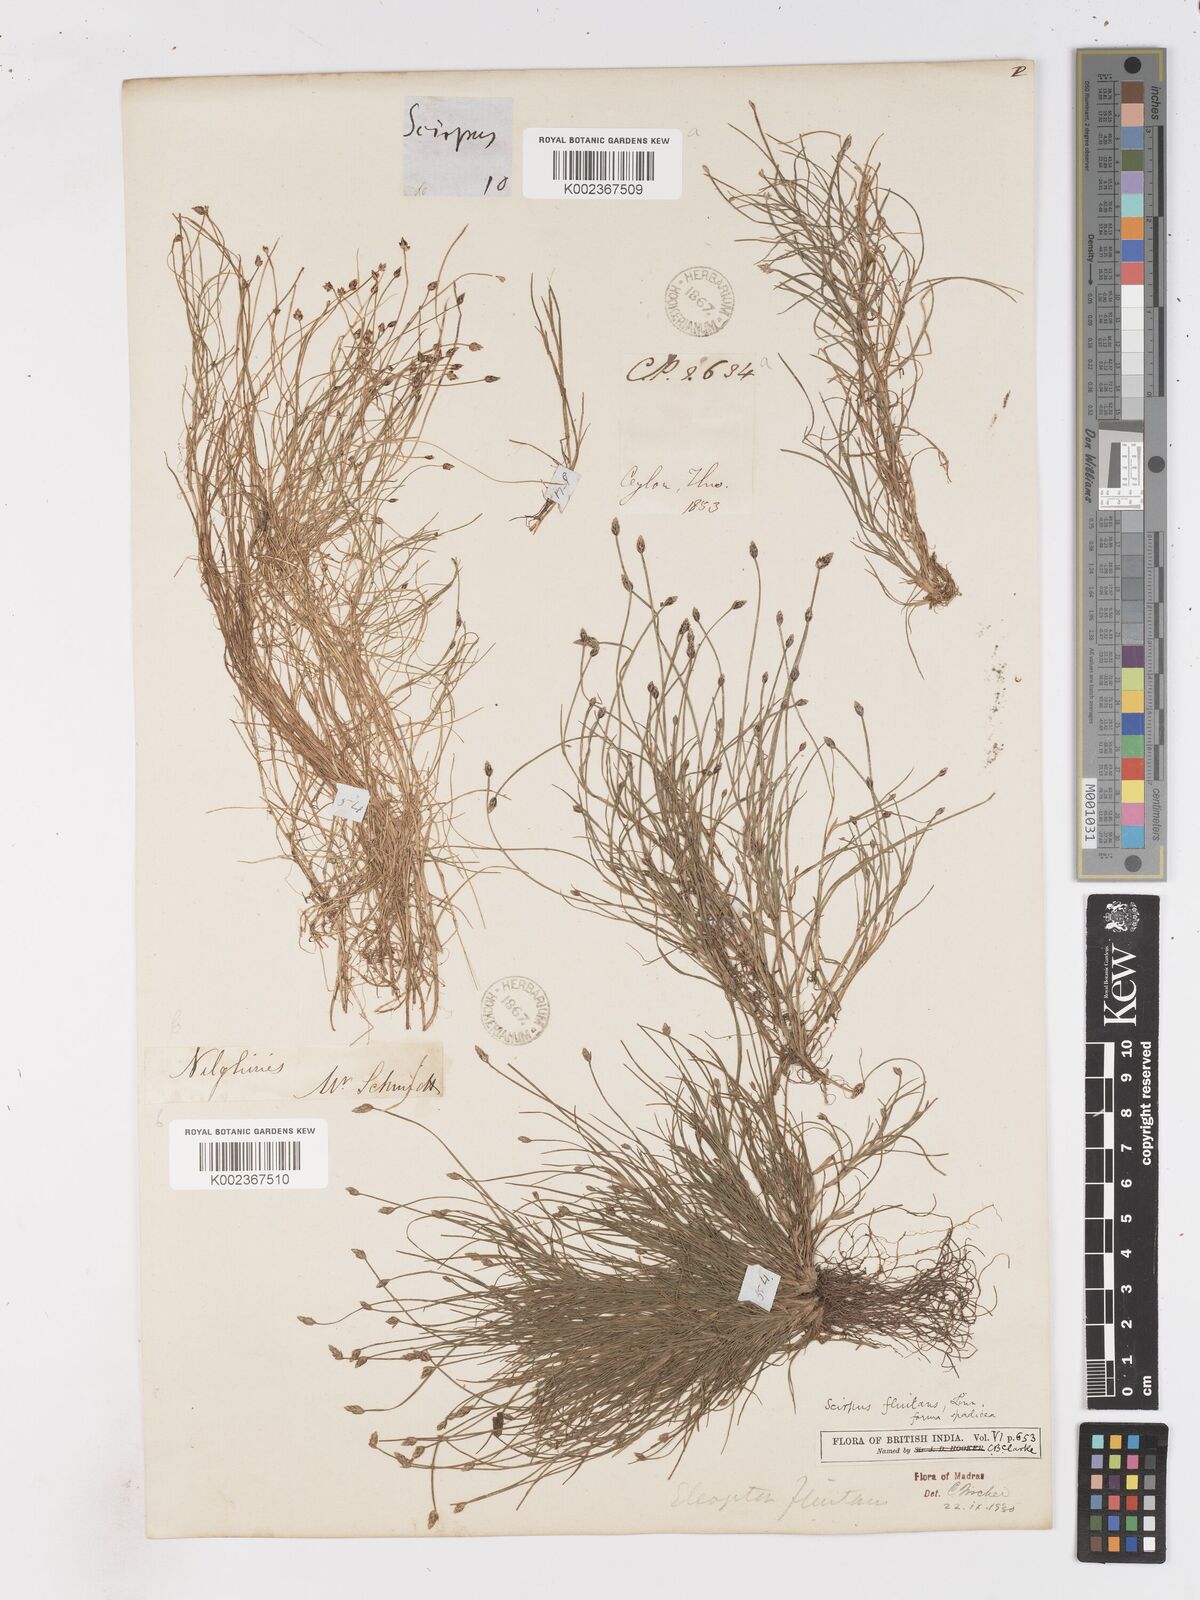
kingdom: Plantae
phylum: Tracheophyta
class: Liliopsida
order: Poales
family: Cyperaceae
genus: Isolepis
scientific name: Isolepis fluitans
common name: Floating club-rush
